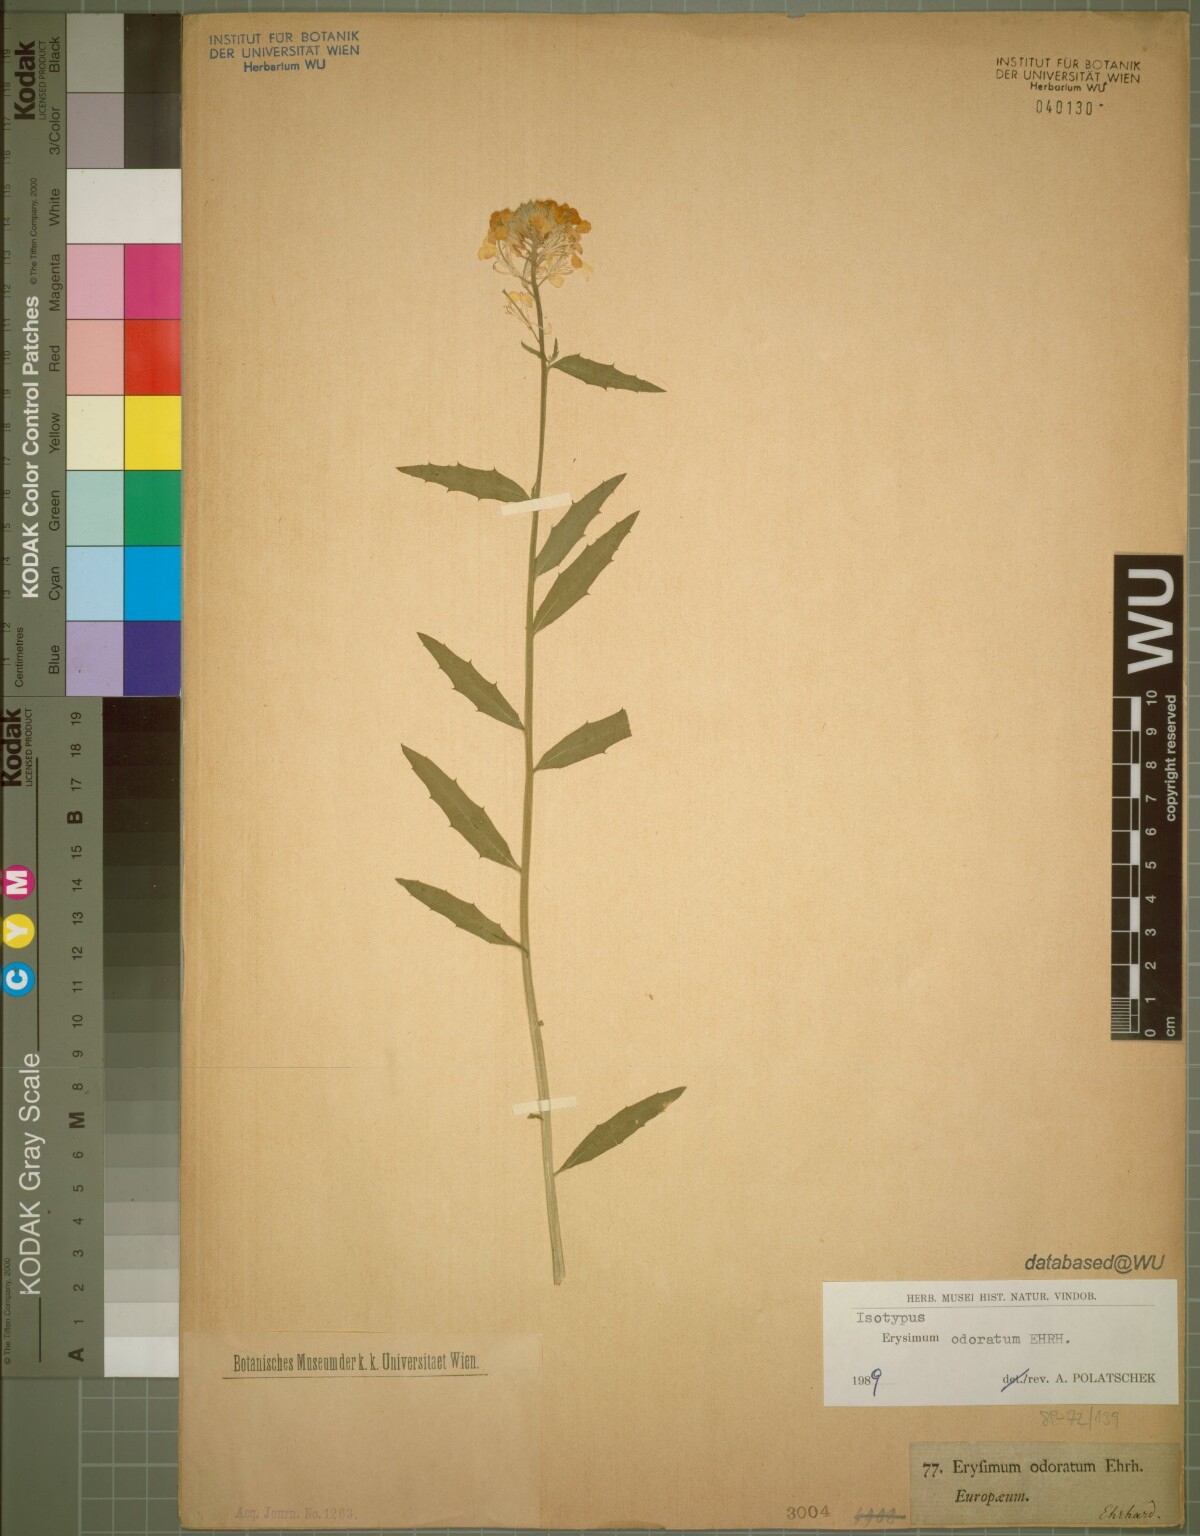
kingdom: Plantae
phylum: Tracheophyta
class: Magnoliopsida
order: Brassicales
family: Brassicaceae
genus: Erysimum
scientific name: Erysimum odoratum
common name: Smelly wallflower
